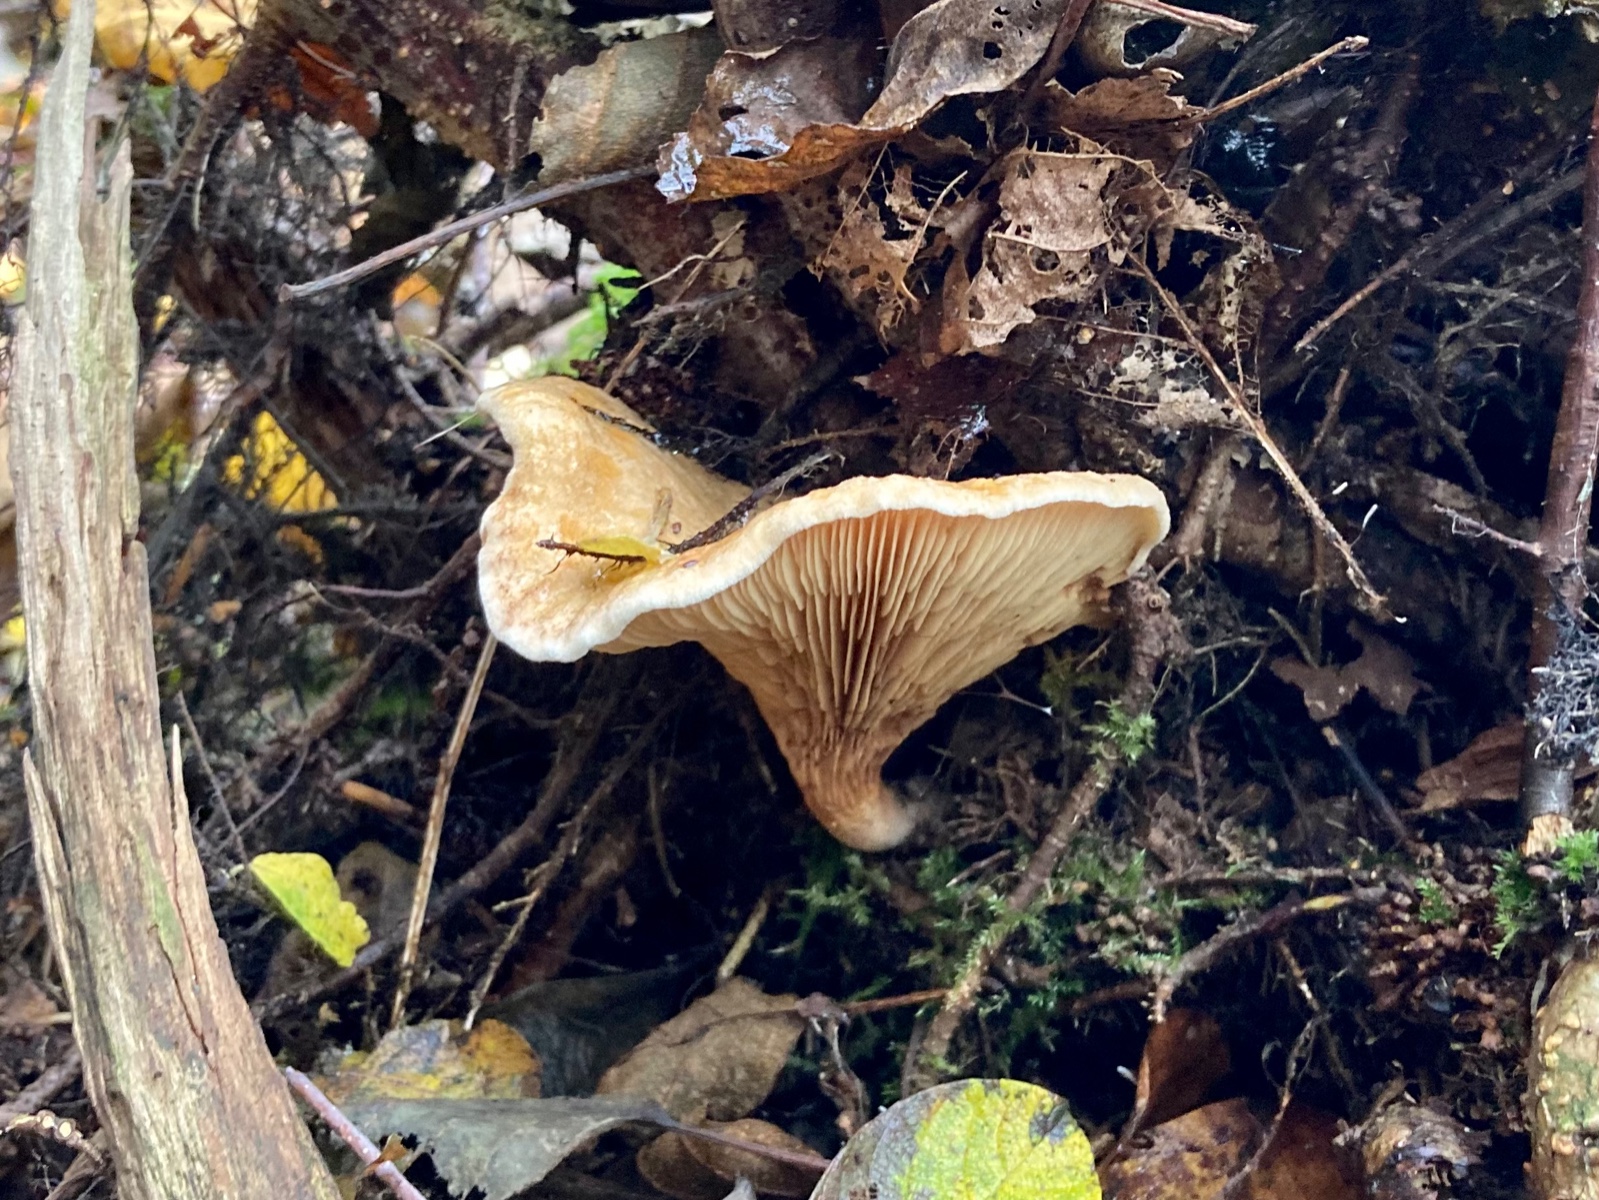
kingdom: Fungi
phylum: Basidiomycota
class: Agaricomycetes
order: Boletales
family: Paxillaceae
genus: Paxillus
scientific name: Paxillus involutus
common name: almindelig netbladhat
